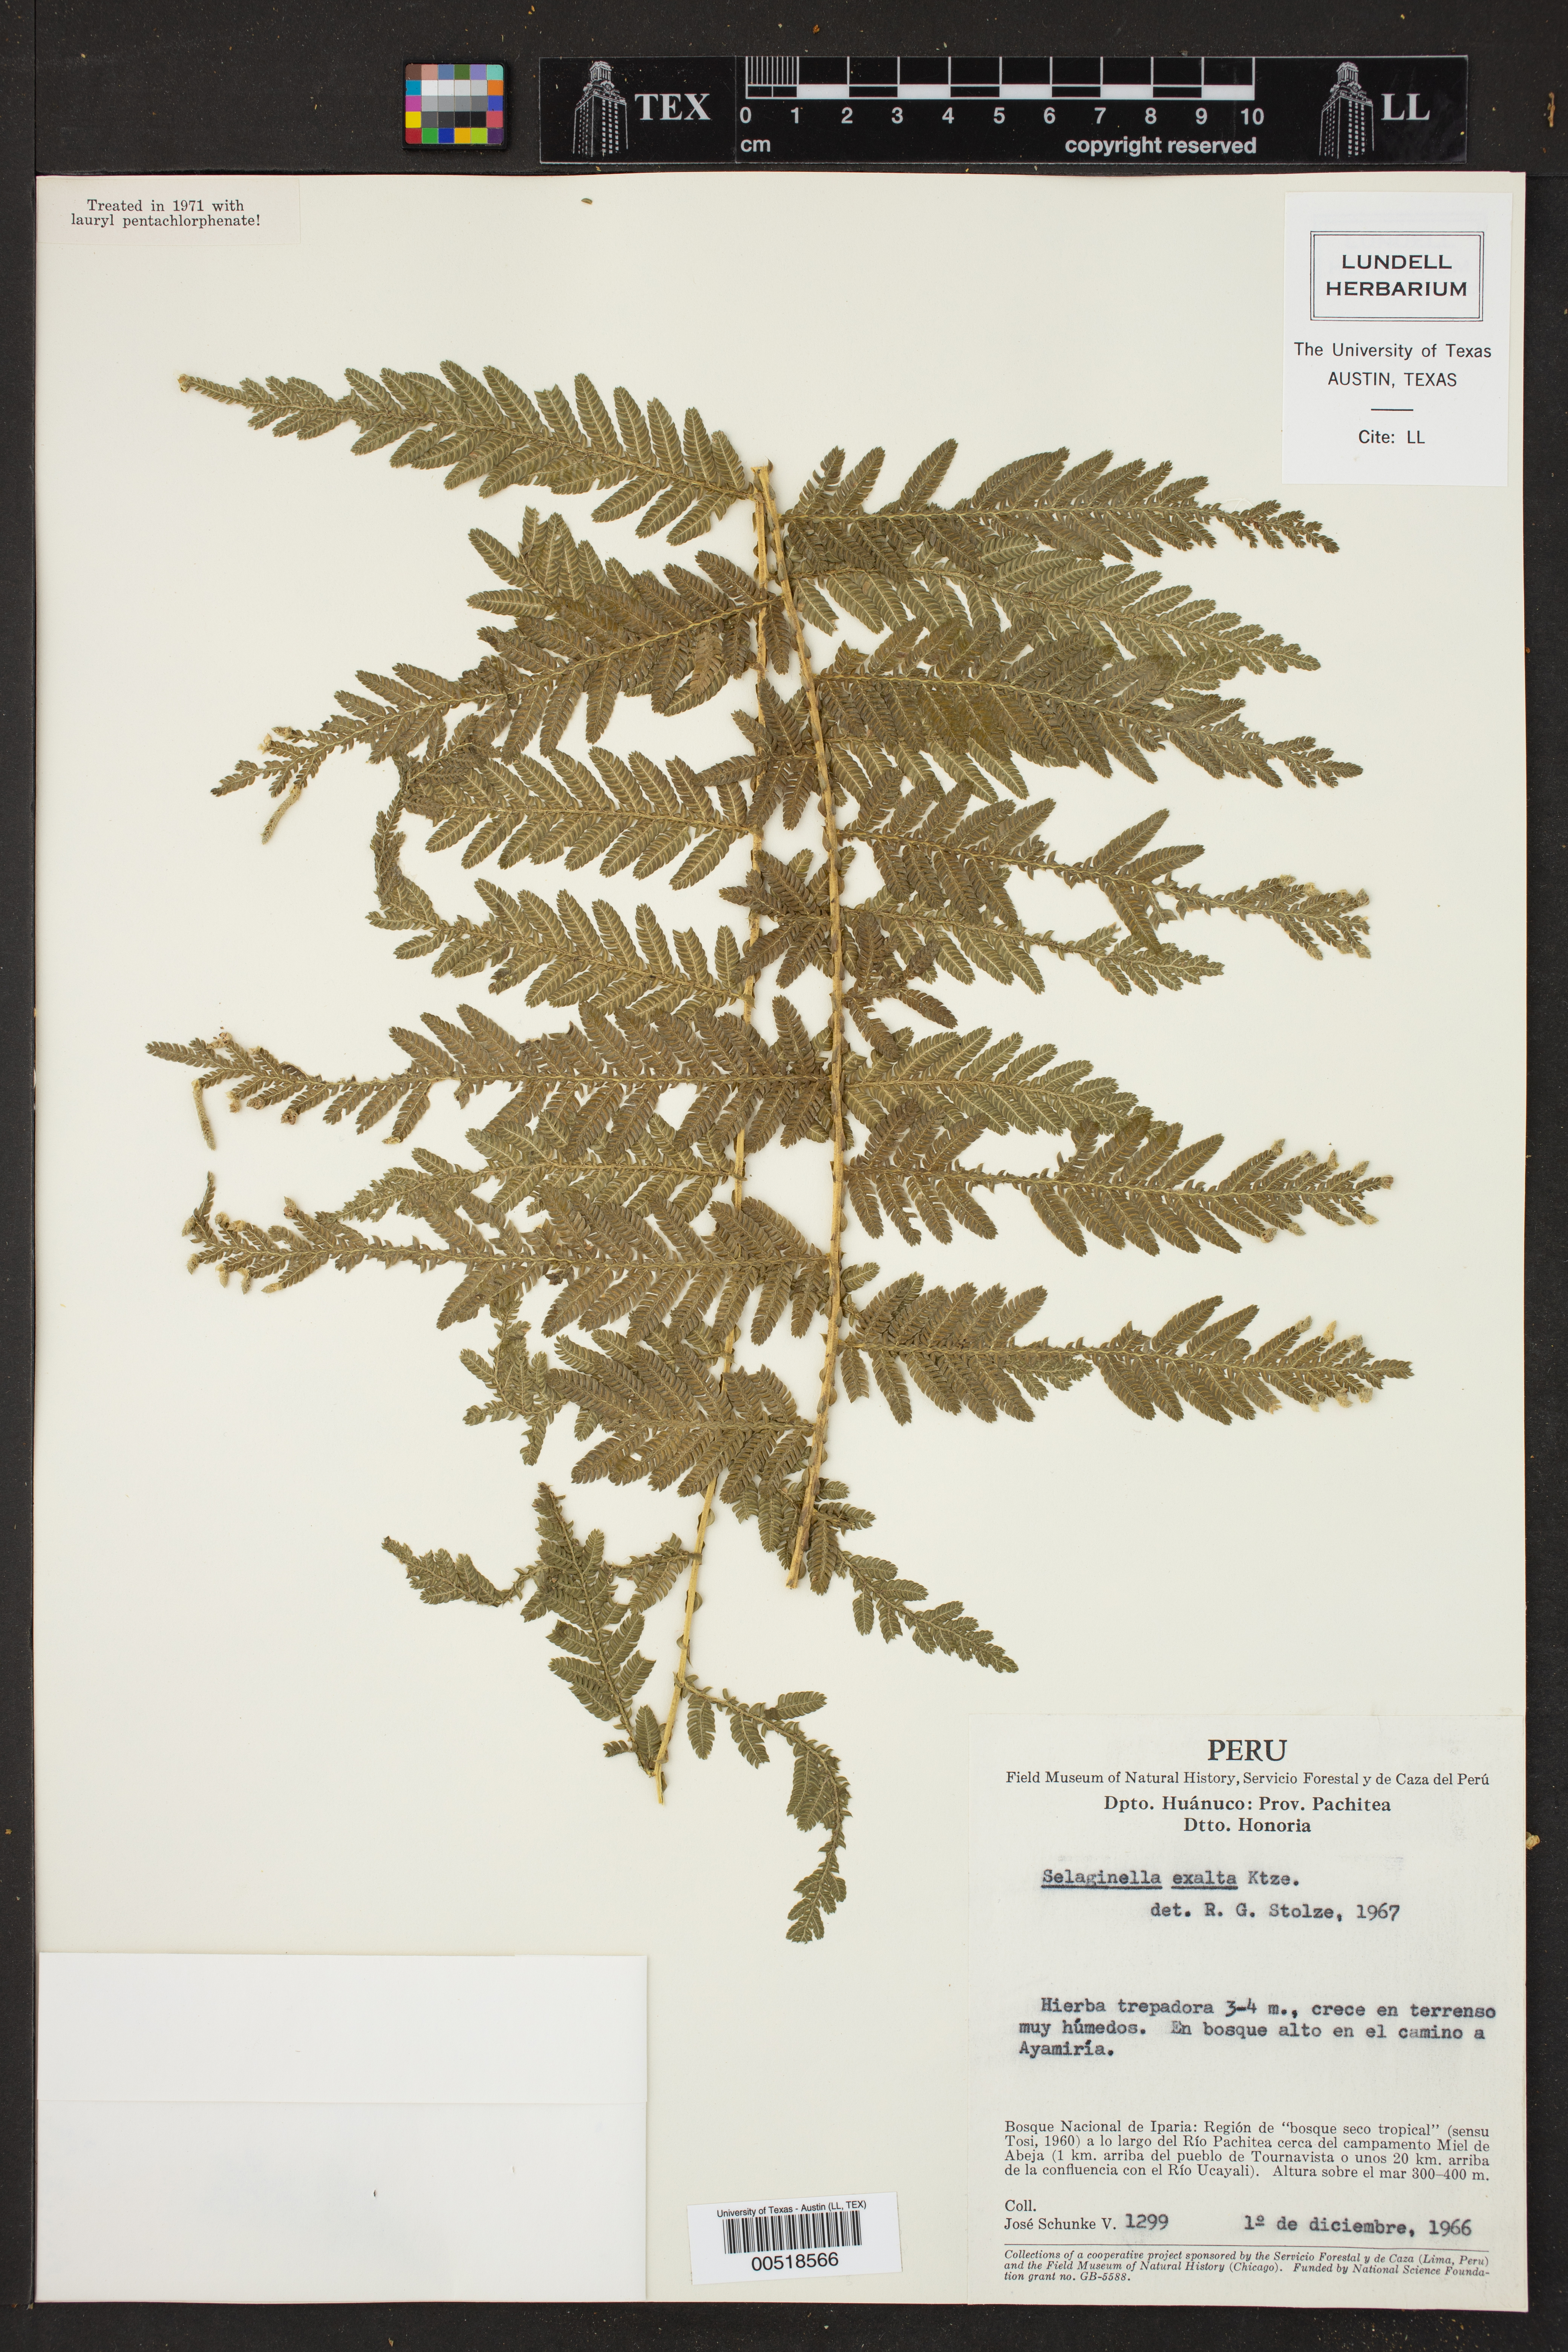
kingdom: Plantae
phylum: Tracheophyta
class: Lycopodiopsida
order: Selaginellales
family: Selaginellaceae
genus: Selaginella
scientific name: Selaginella exaltata
